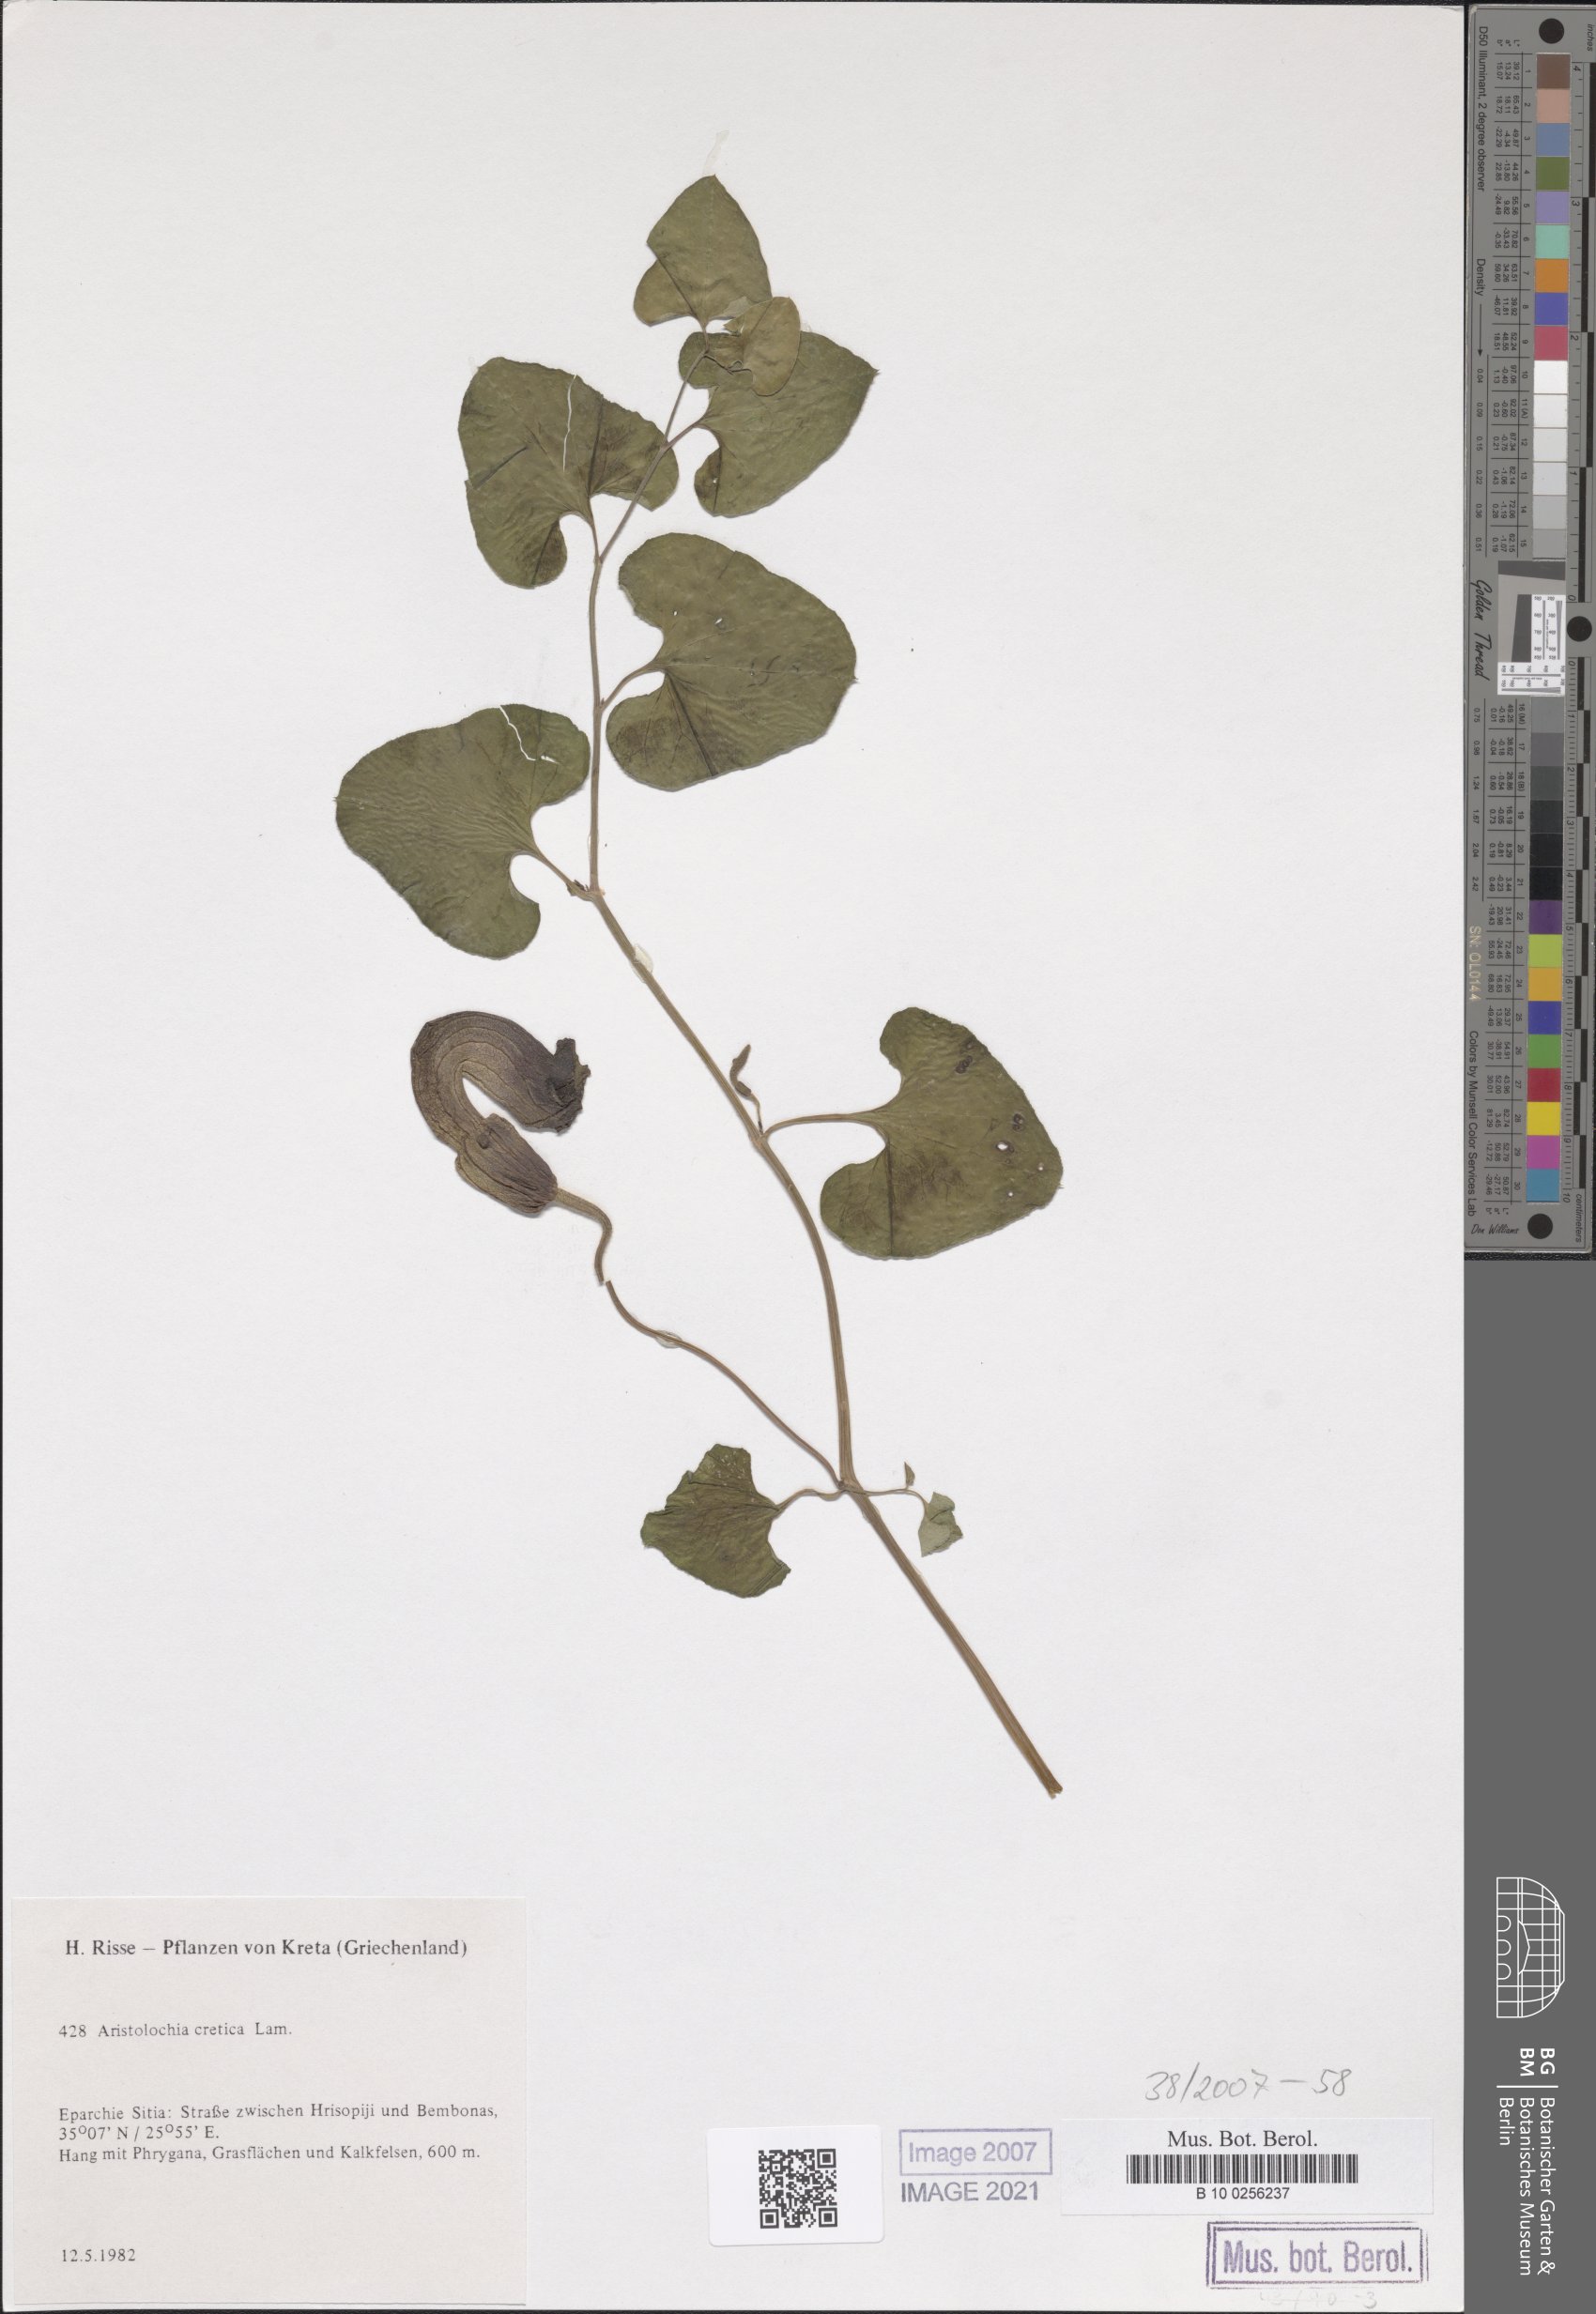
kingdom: Plantae
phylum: Tracheophyta
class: Magnoliopsida
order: Piperales
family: Aristolochiaceae
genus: Aristolochia
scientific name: Aristolochia cretica
